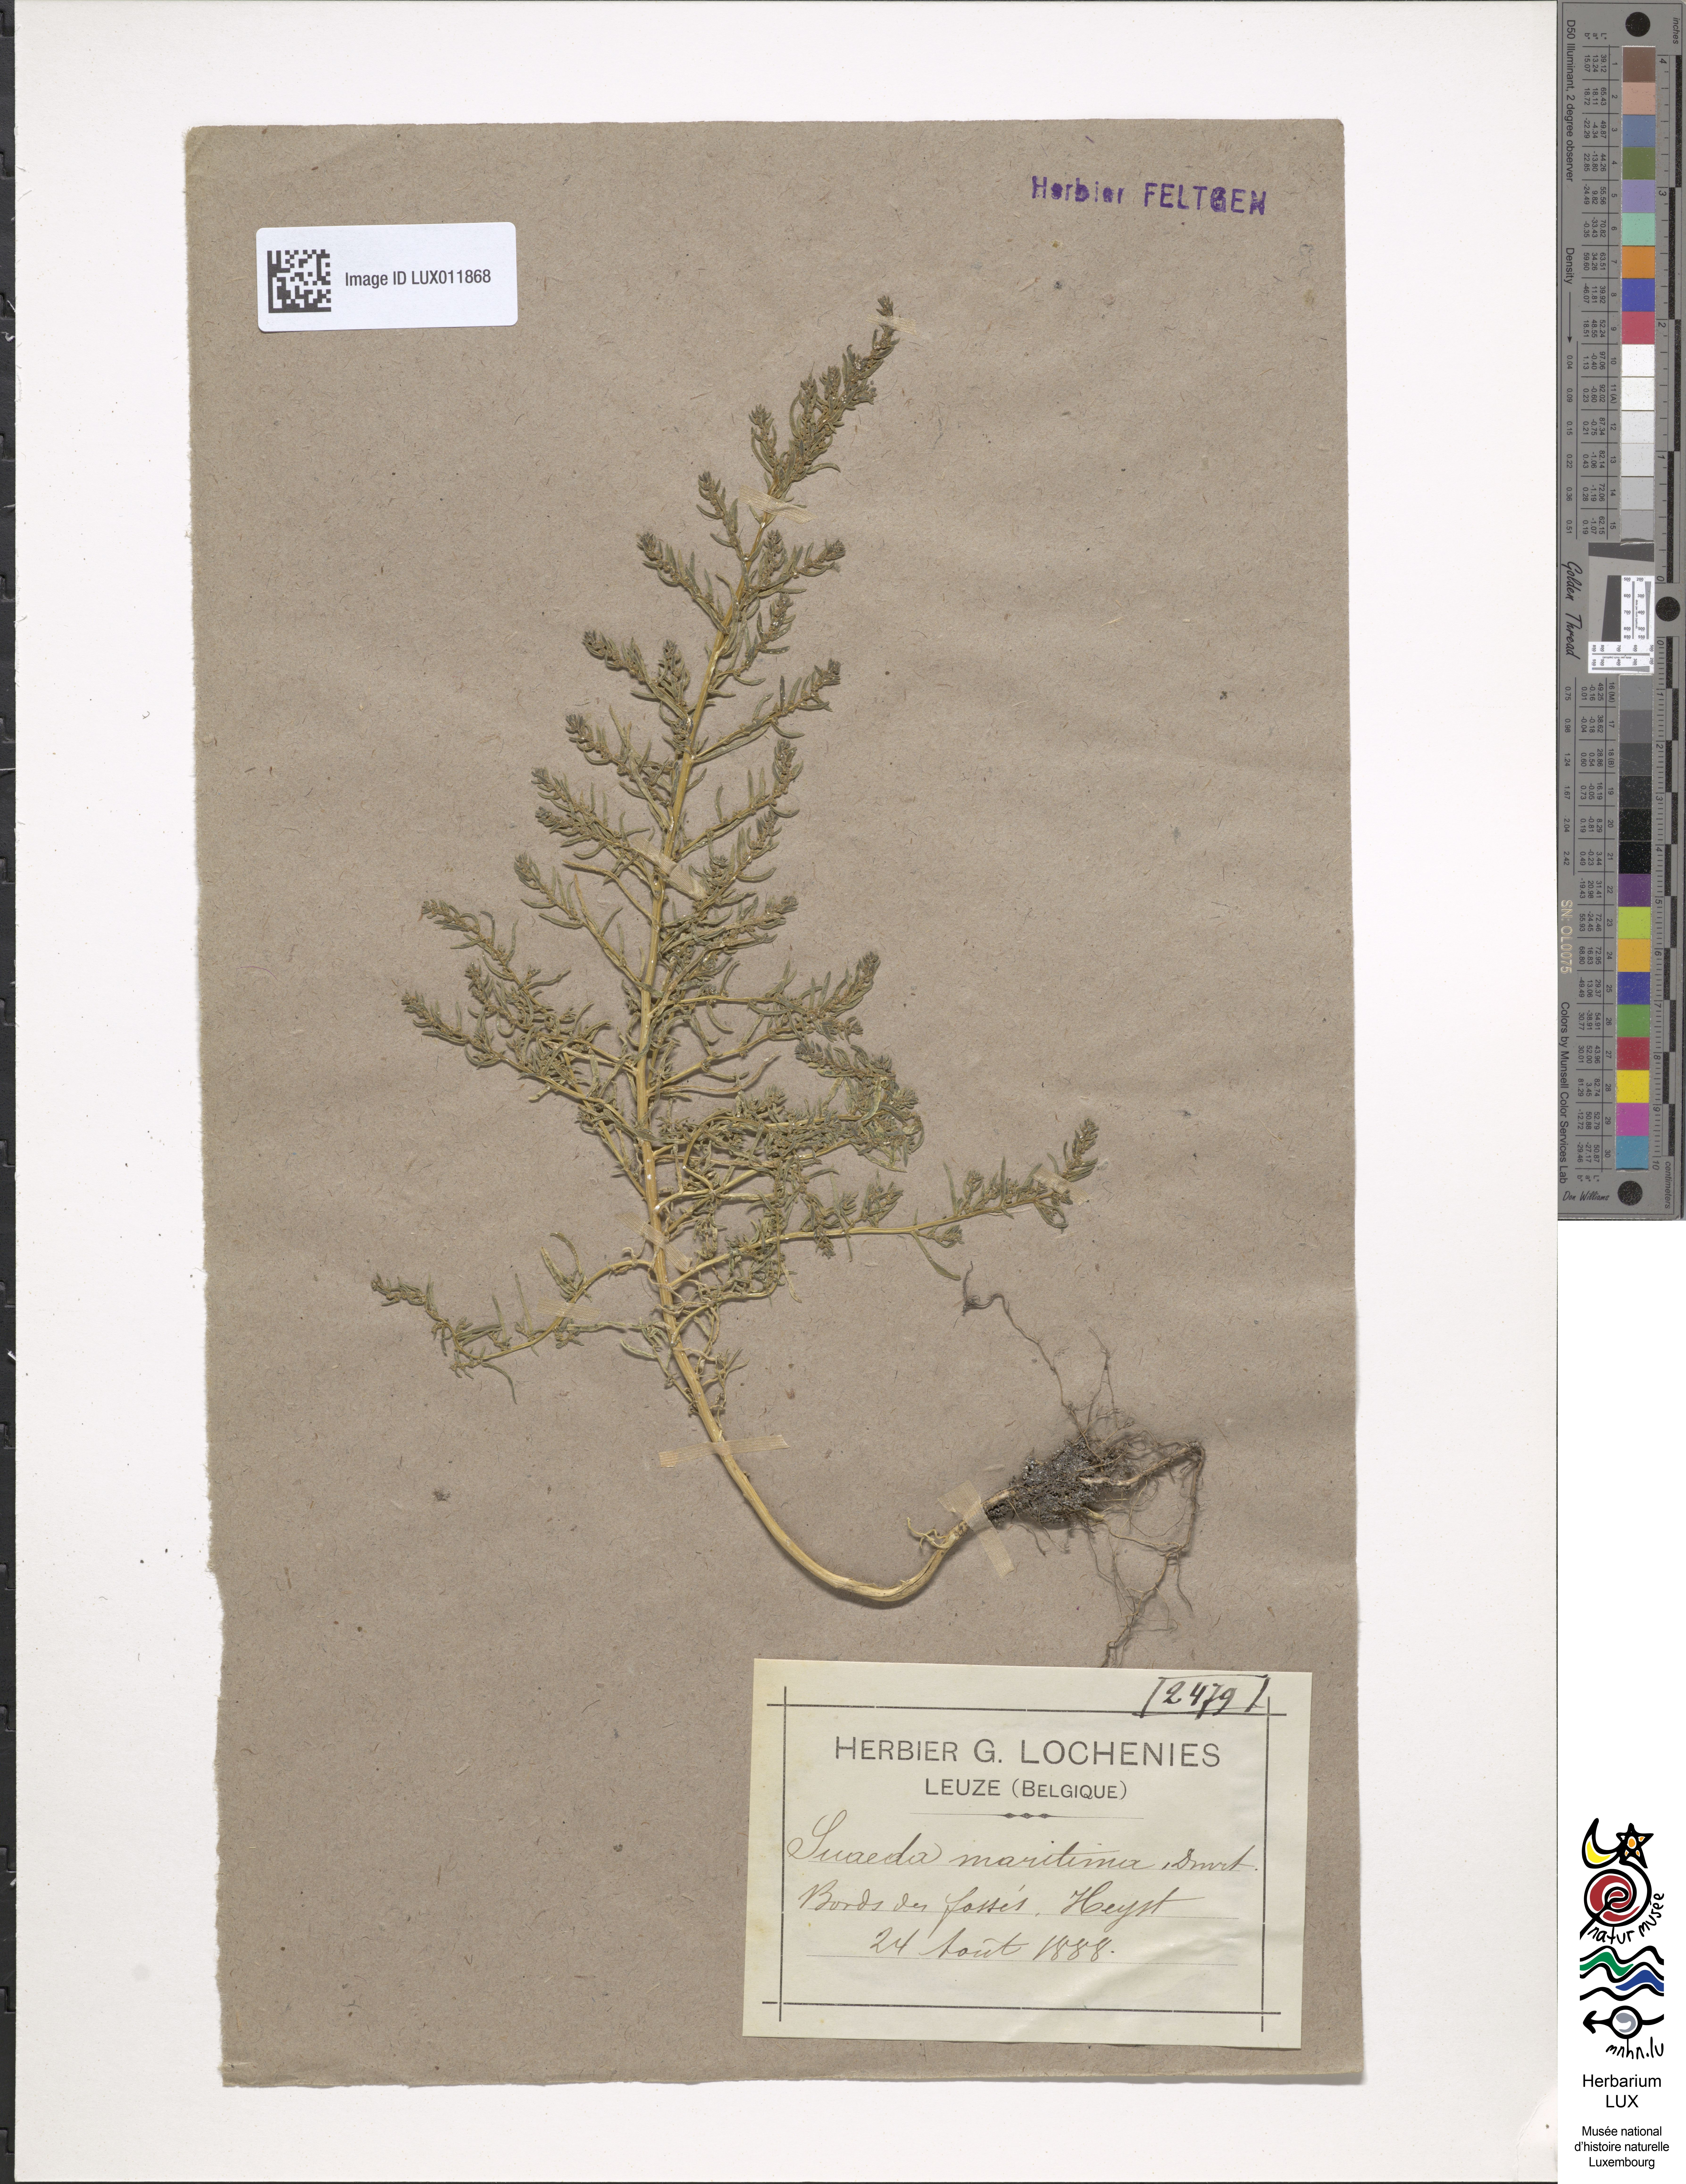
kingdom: Plantae
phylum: Tracheophyta
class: Magnoliopsida
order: Caryophyllales
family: Amaranthaceae
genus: Suaeda
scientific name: Suaeda maritima
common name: Annual sea-blite
